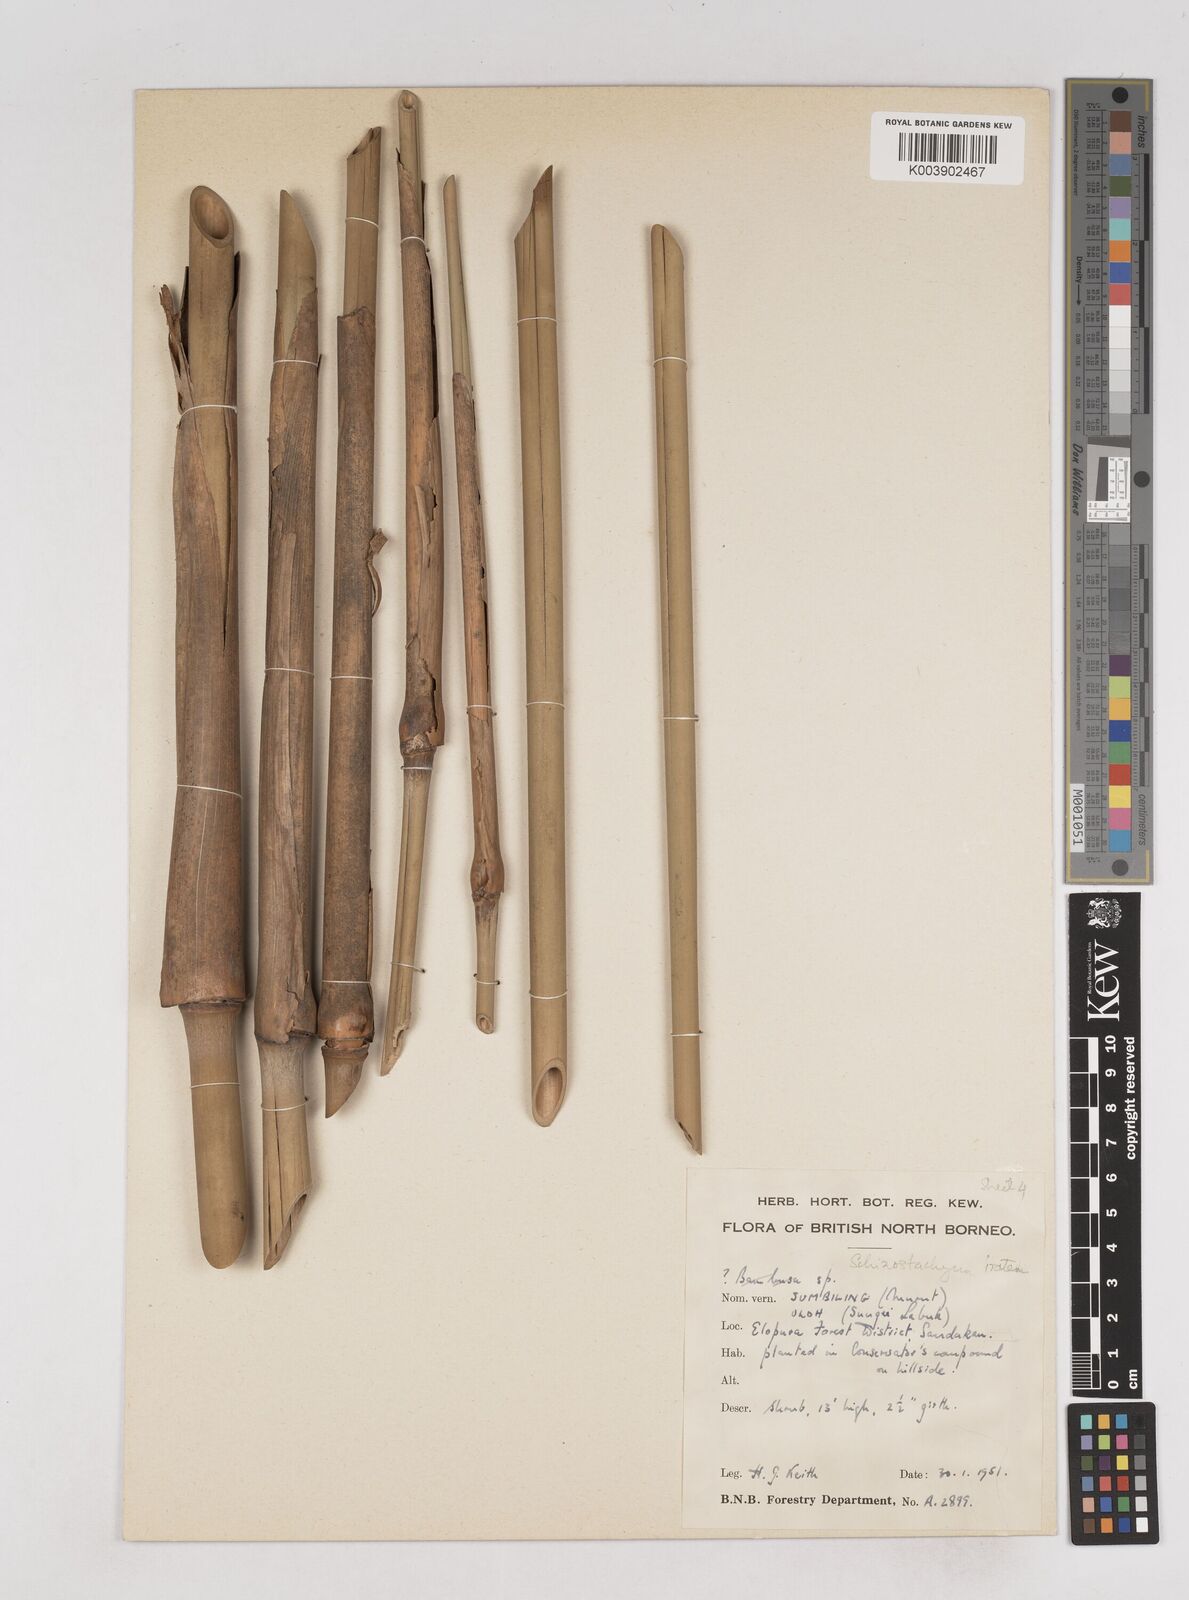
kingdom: Plantae
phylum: Tracheophyta
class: Liliopsida
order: Poales
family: Poaceae
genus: Schizostachyum
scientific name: Schizostachyum
